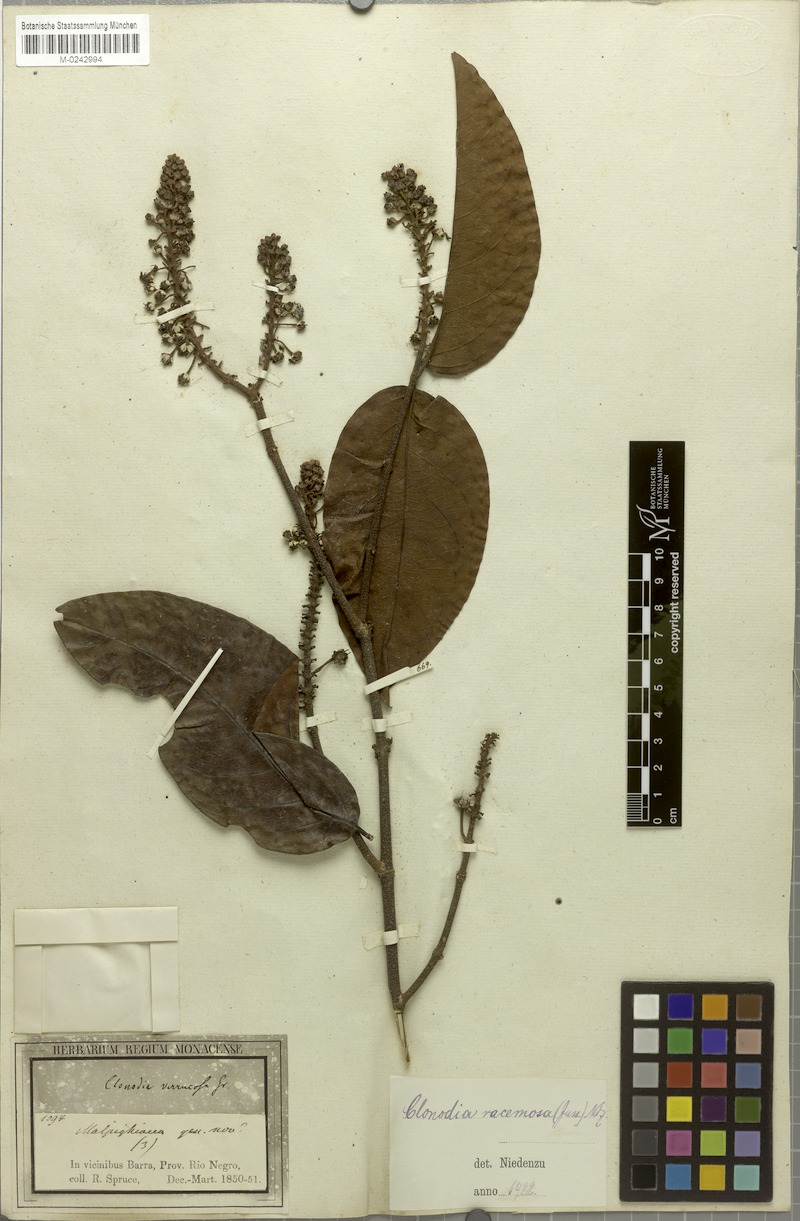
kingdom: Plantae
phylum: Tracheophyta
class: Magnoliopsida
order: Malpighiales
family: Malpighiaceae
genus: Heteropterys
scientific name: Heteropterys racemosa
